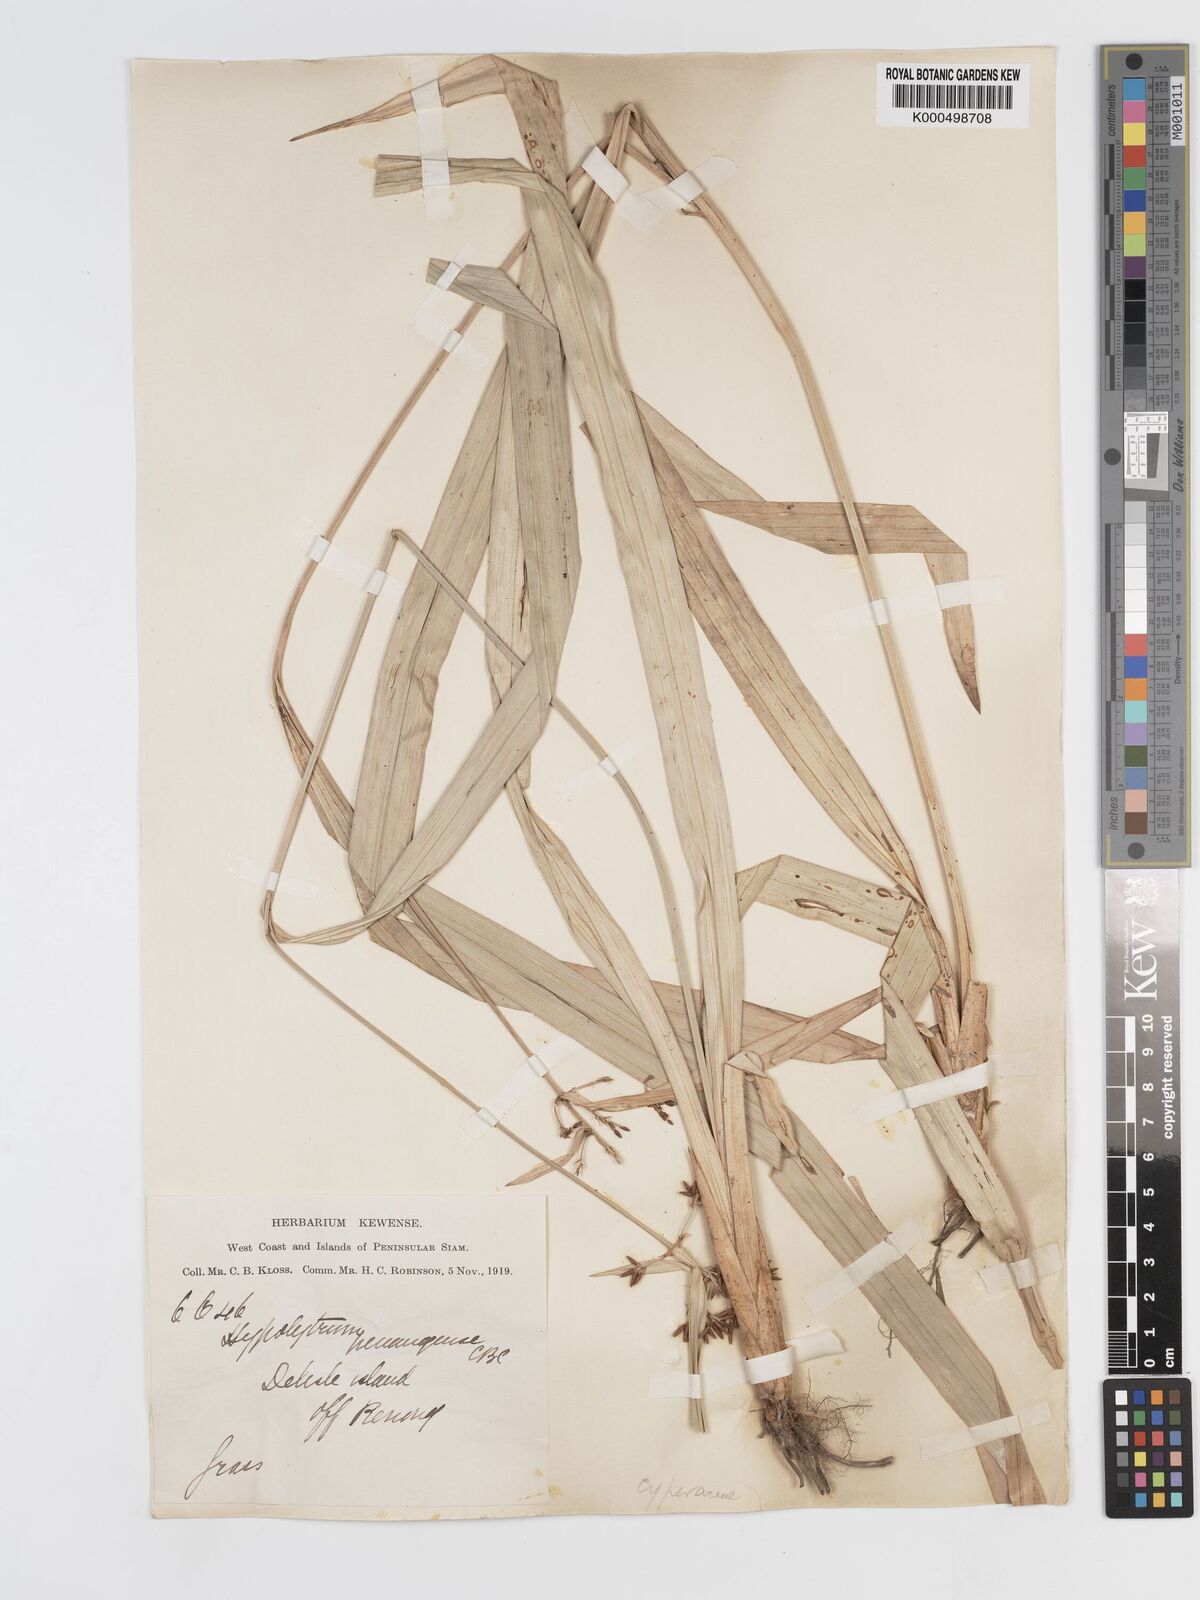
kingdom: Plantae
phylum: Tracheophyta
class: Liliopsida
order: Poales
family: Cyperaceae
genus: Hypolytrum
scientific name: Hypolytrum nemorum
